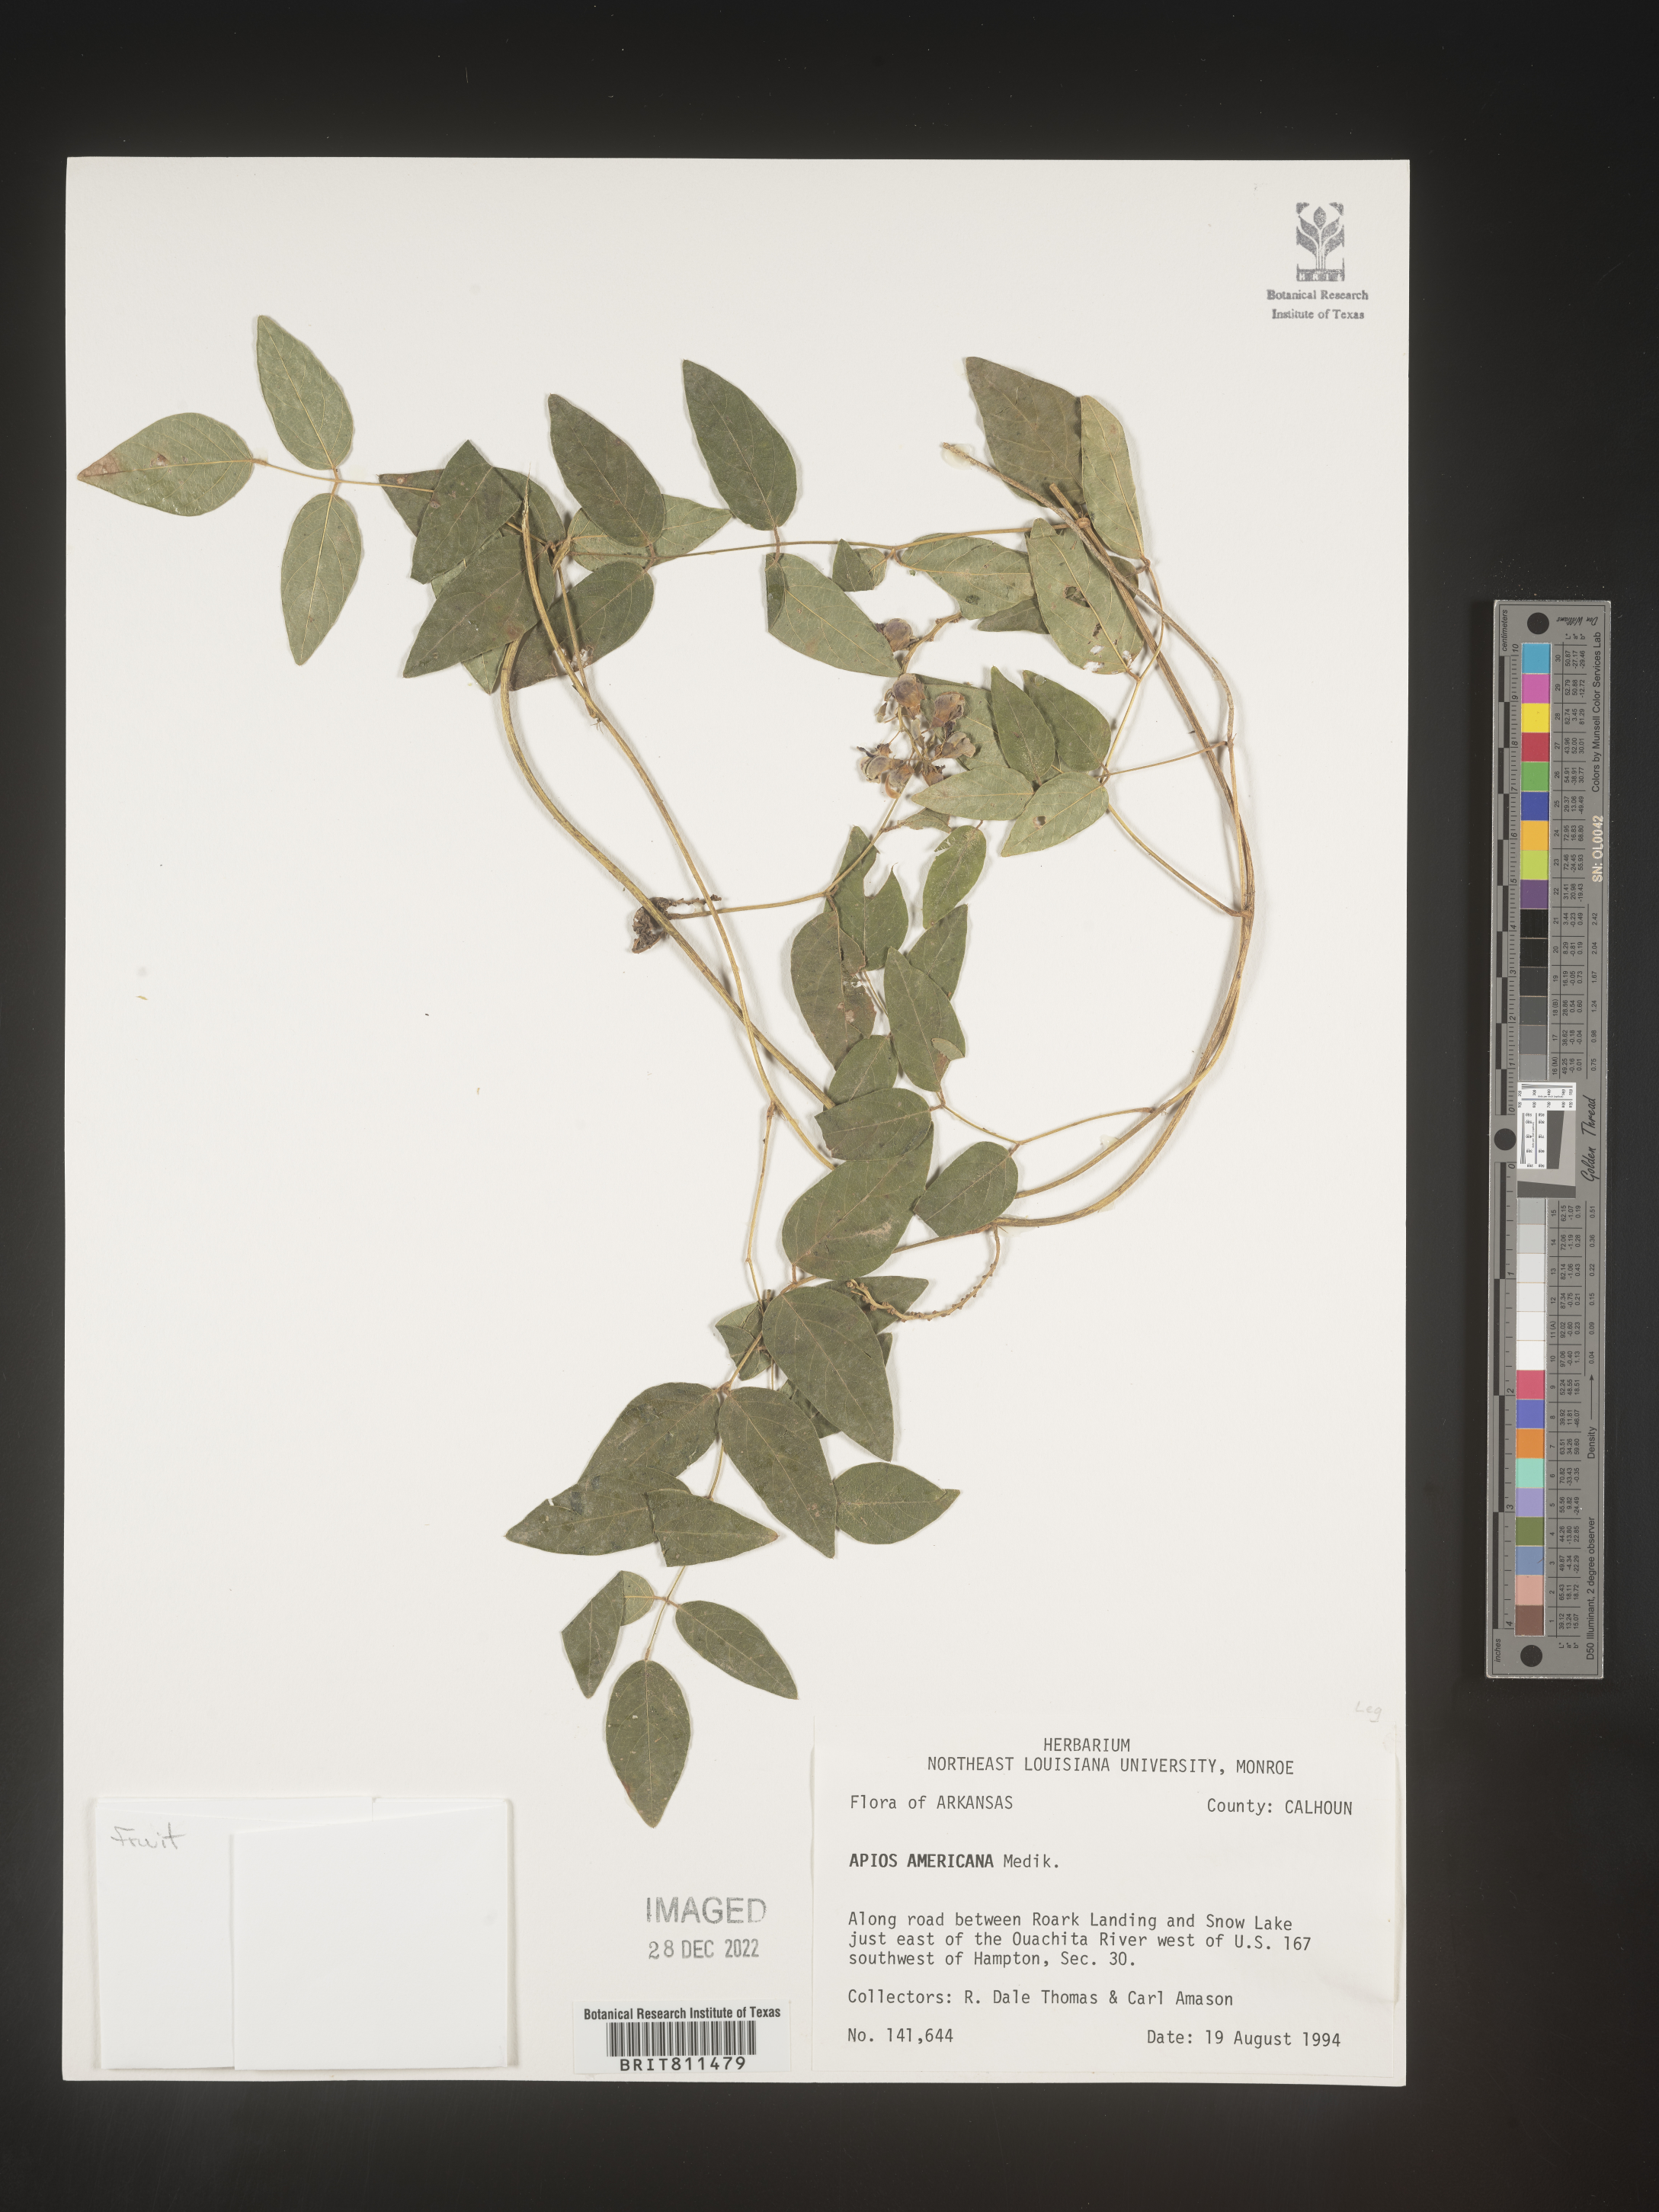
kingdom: Plantae
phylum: Tracheophyta
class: Magnoliopsida
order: Fabales
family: Fabaceae
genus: Apios
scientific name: Apios americana
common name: American potato-bean
